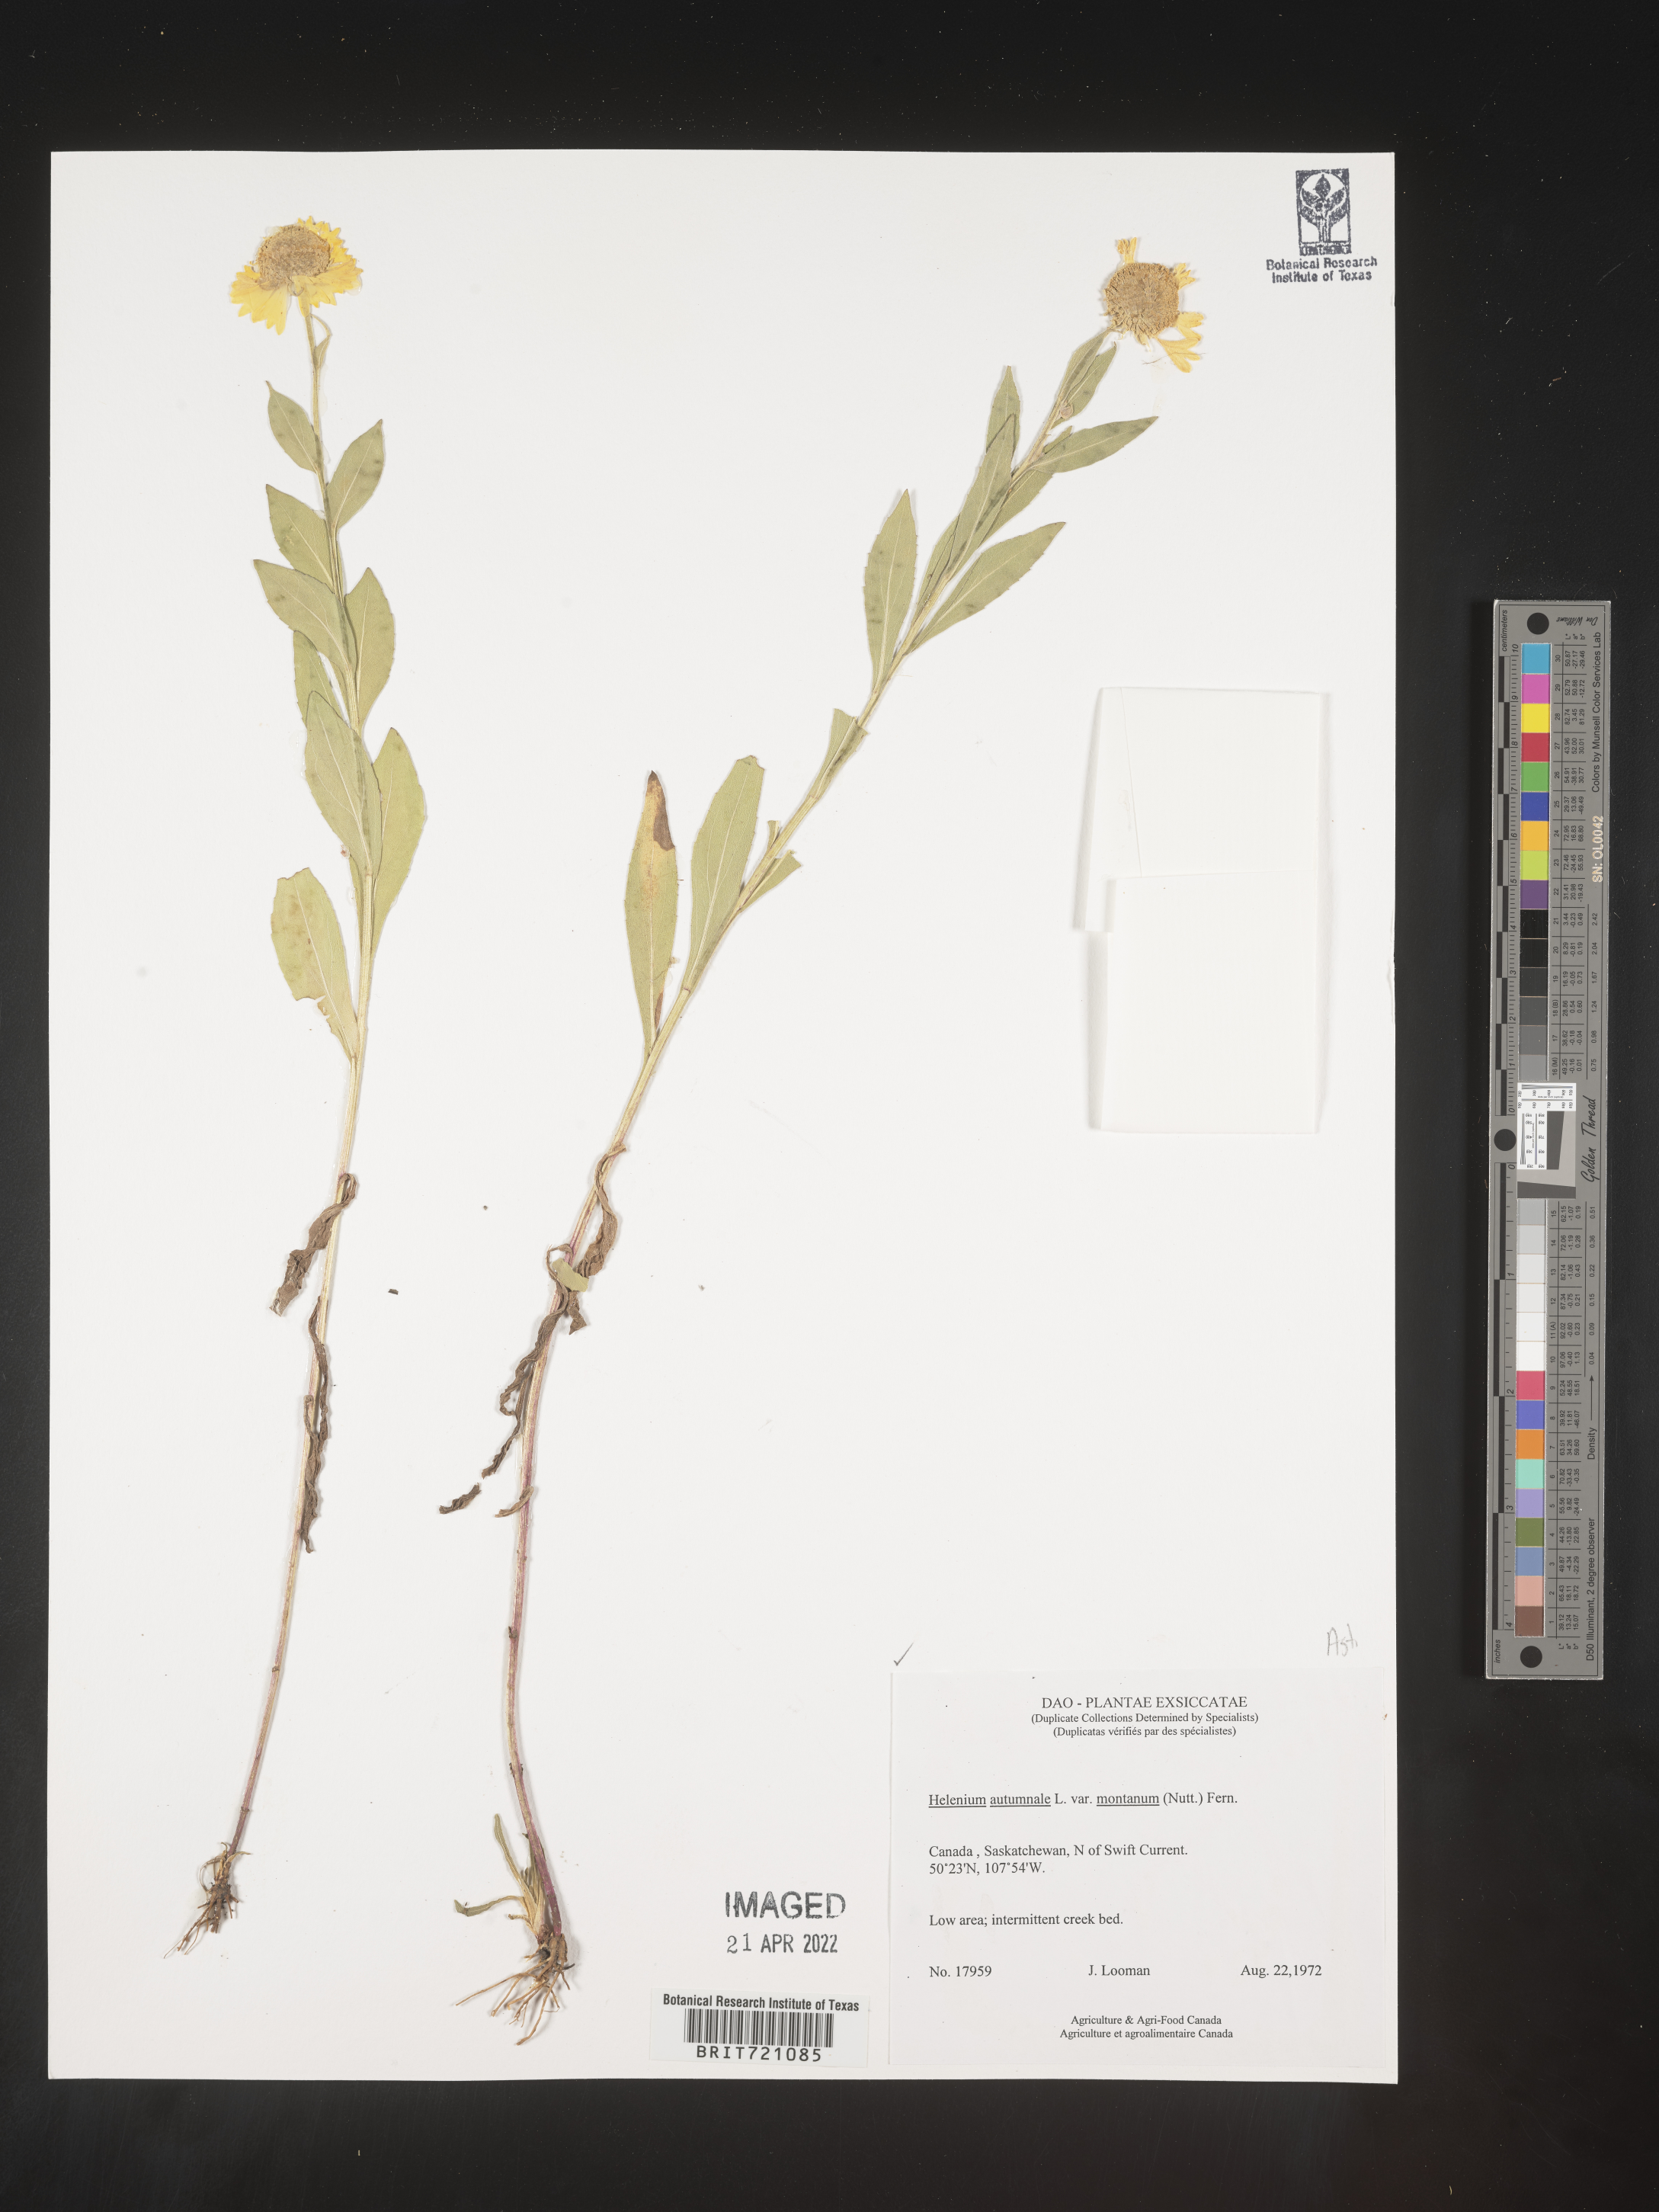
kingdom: Plantae
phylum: Tracheophyta
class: Magnoliopsida
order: Asterales
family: Asteraceae
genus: Helenium
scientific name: Helenium autumnale
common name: Sneezeweed
